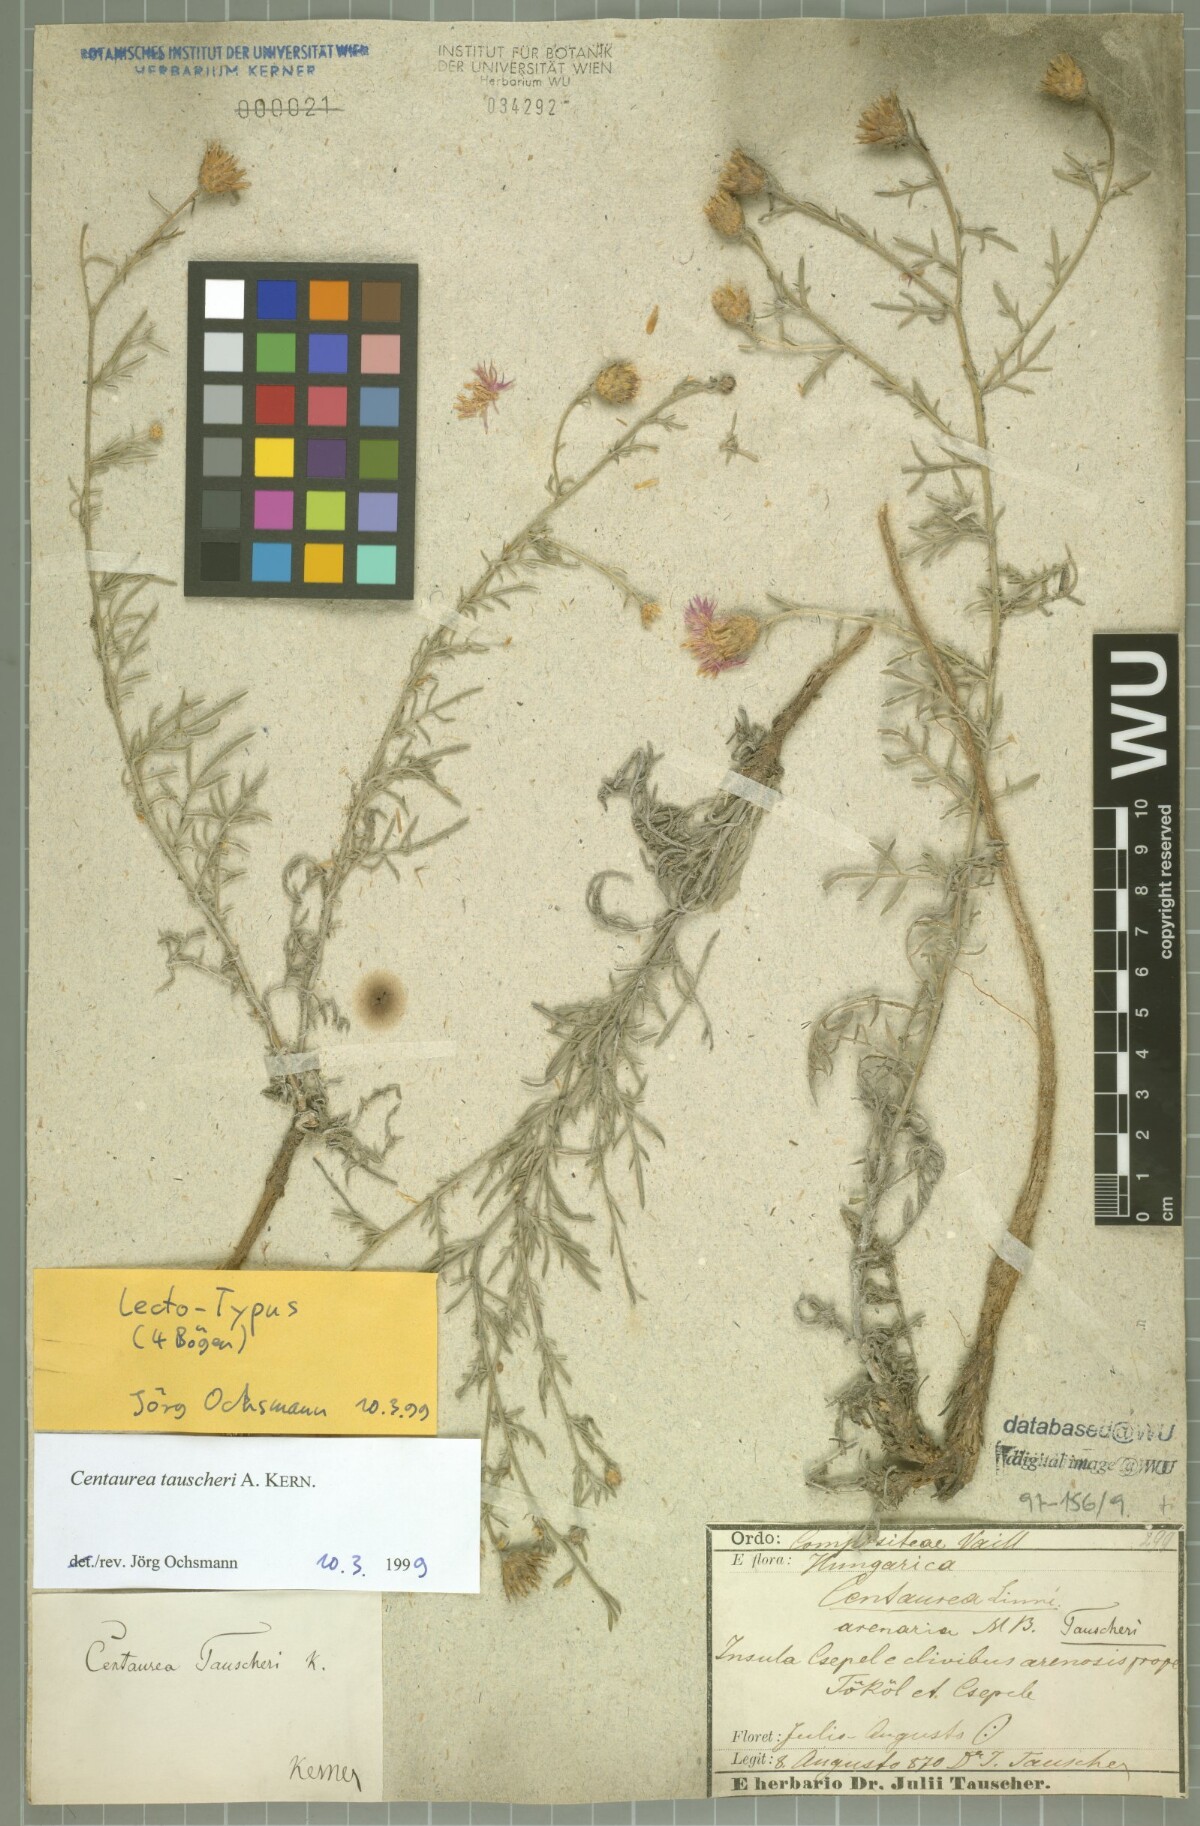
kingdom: Plantae
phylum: Tracheophyta
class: Magnoliopsida
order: Asterales
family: Asteraceae
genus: Centaurea
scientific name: Centaurea tauscheri
